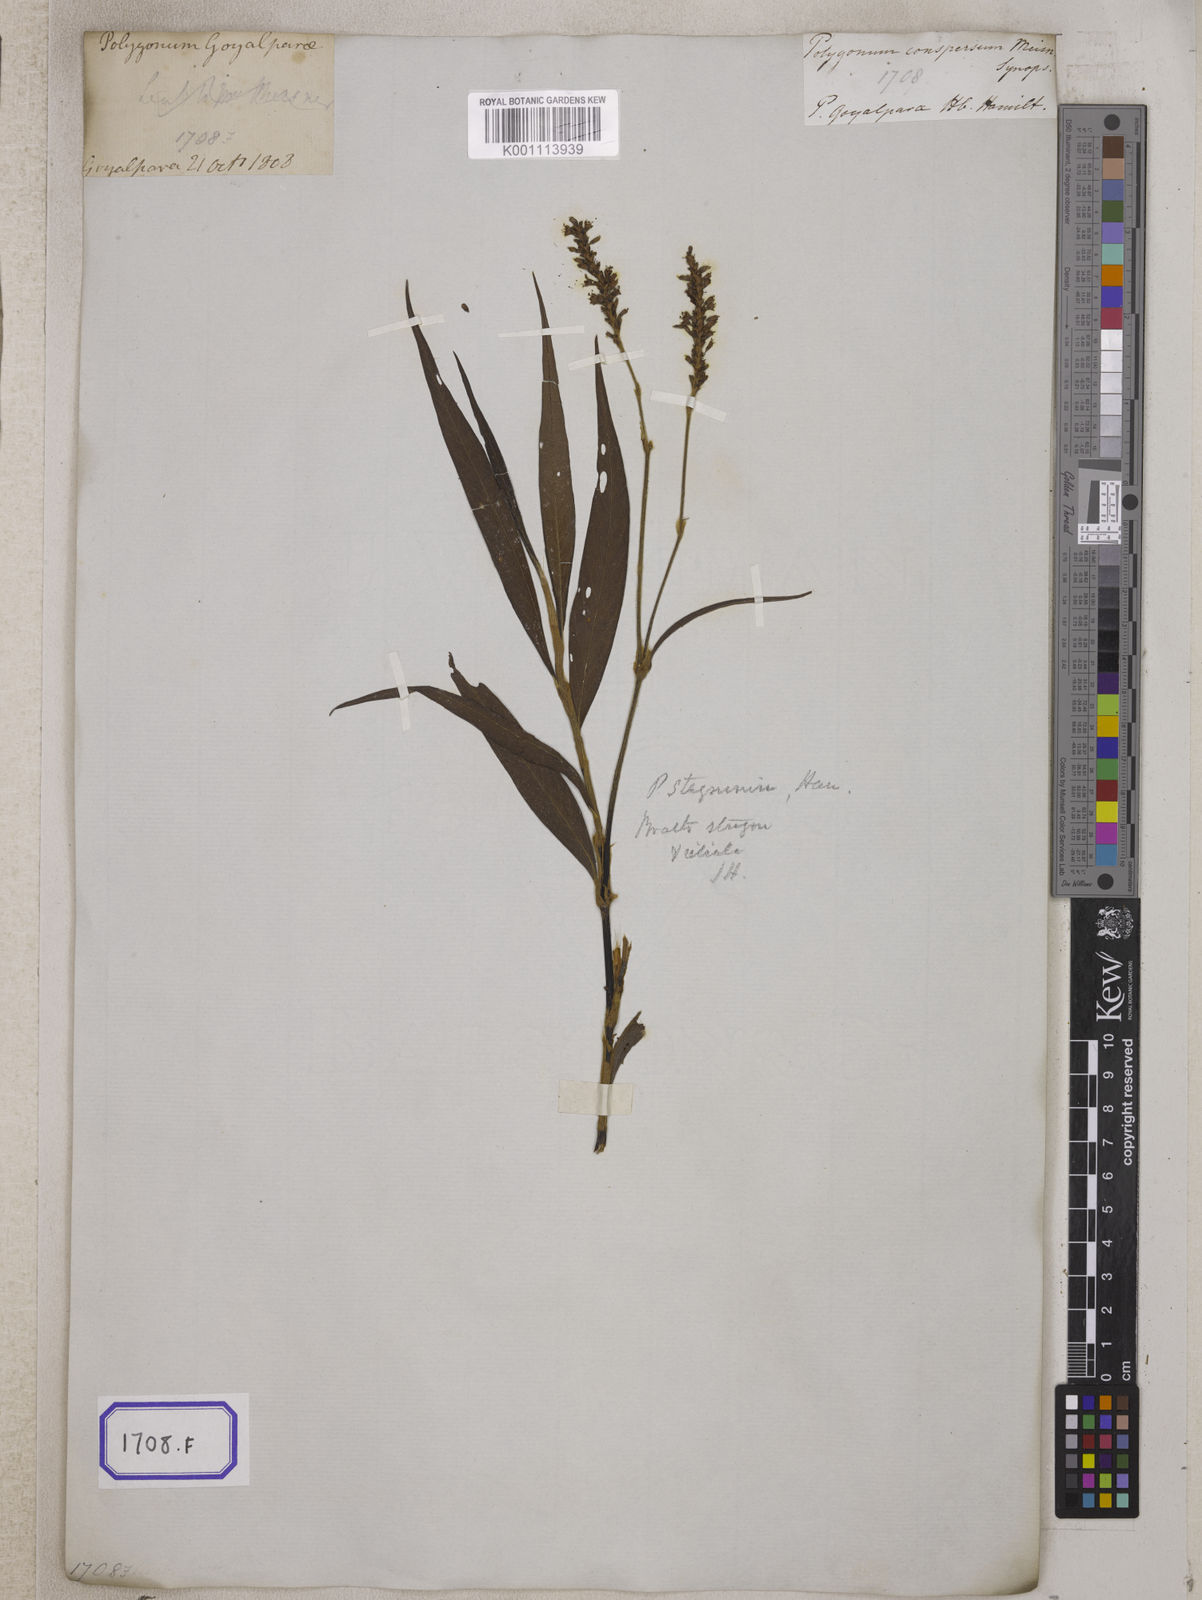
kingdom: Plantae
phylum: Tracheophyta
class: Magnoliopsida
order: Caryophyllales
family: Polygonaceae
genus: Persicaria
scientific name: Persicaria barbata
